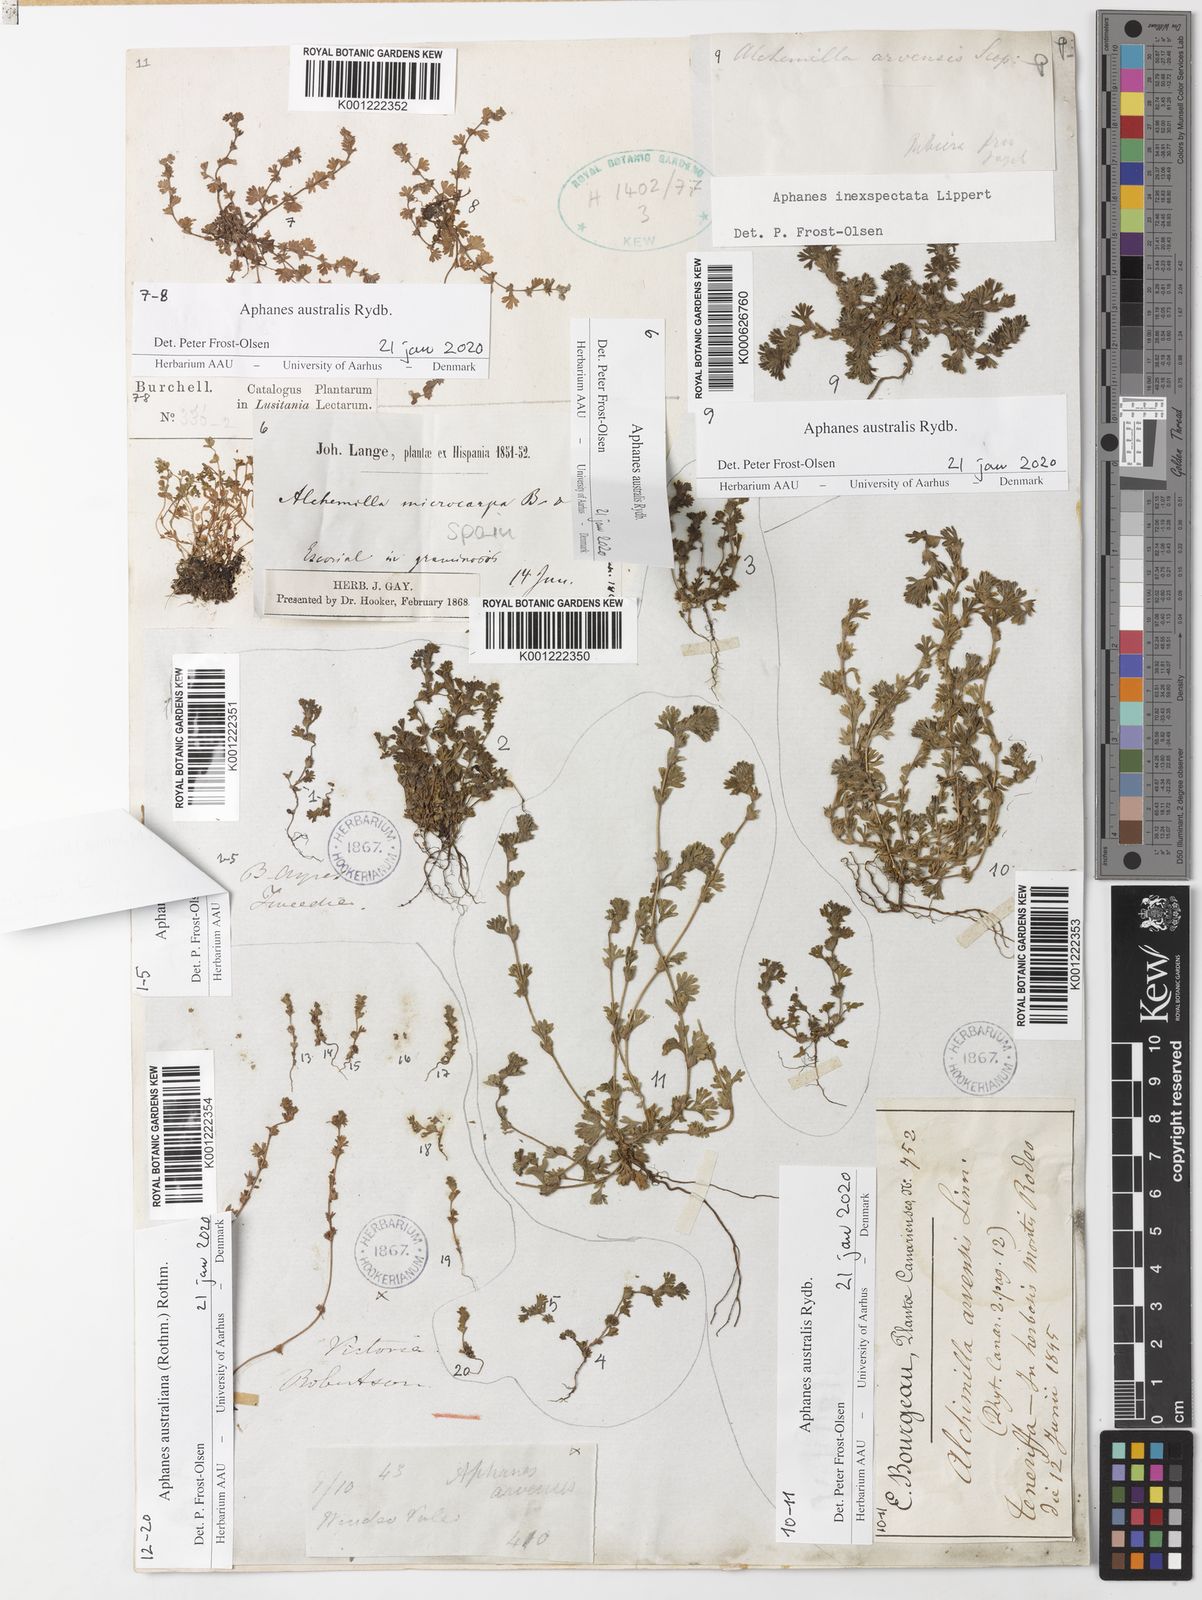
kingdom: Plantae
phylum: Tracheophyta
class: Magnoliopsida
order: Rosales
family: Rosaceae
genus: Aphanes
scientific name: Aphanes australis
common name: Slender parsley-piert
